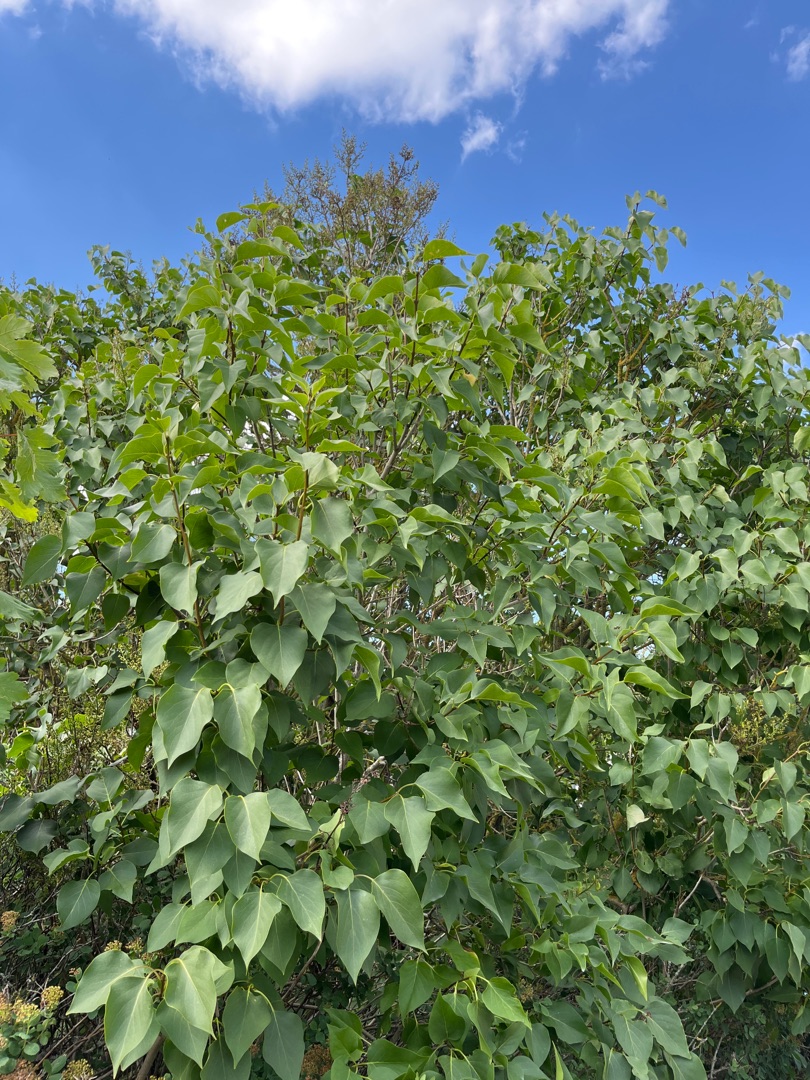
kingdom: Plantae
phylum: Tracheophyta
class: Magnoliopsida
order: Lamiales
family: Oleaceae
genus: Syringa
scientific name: Syringa vulgaris
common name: Syren
